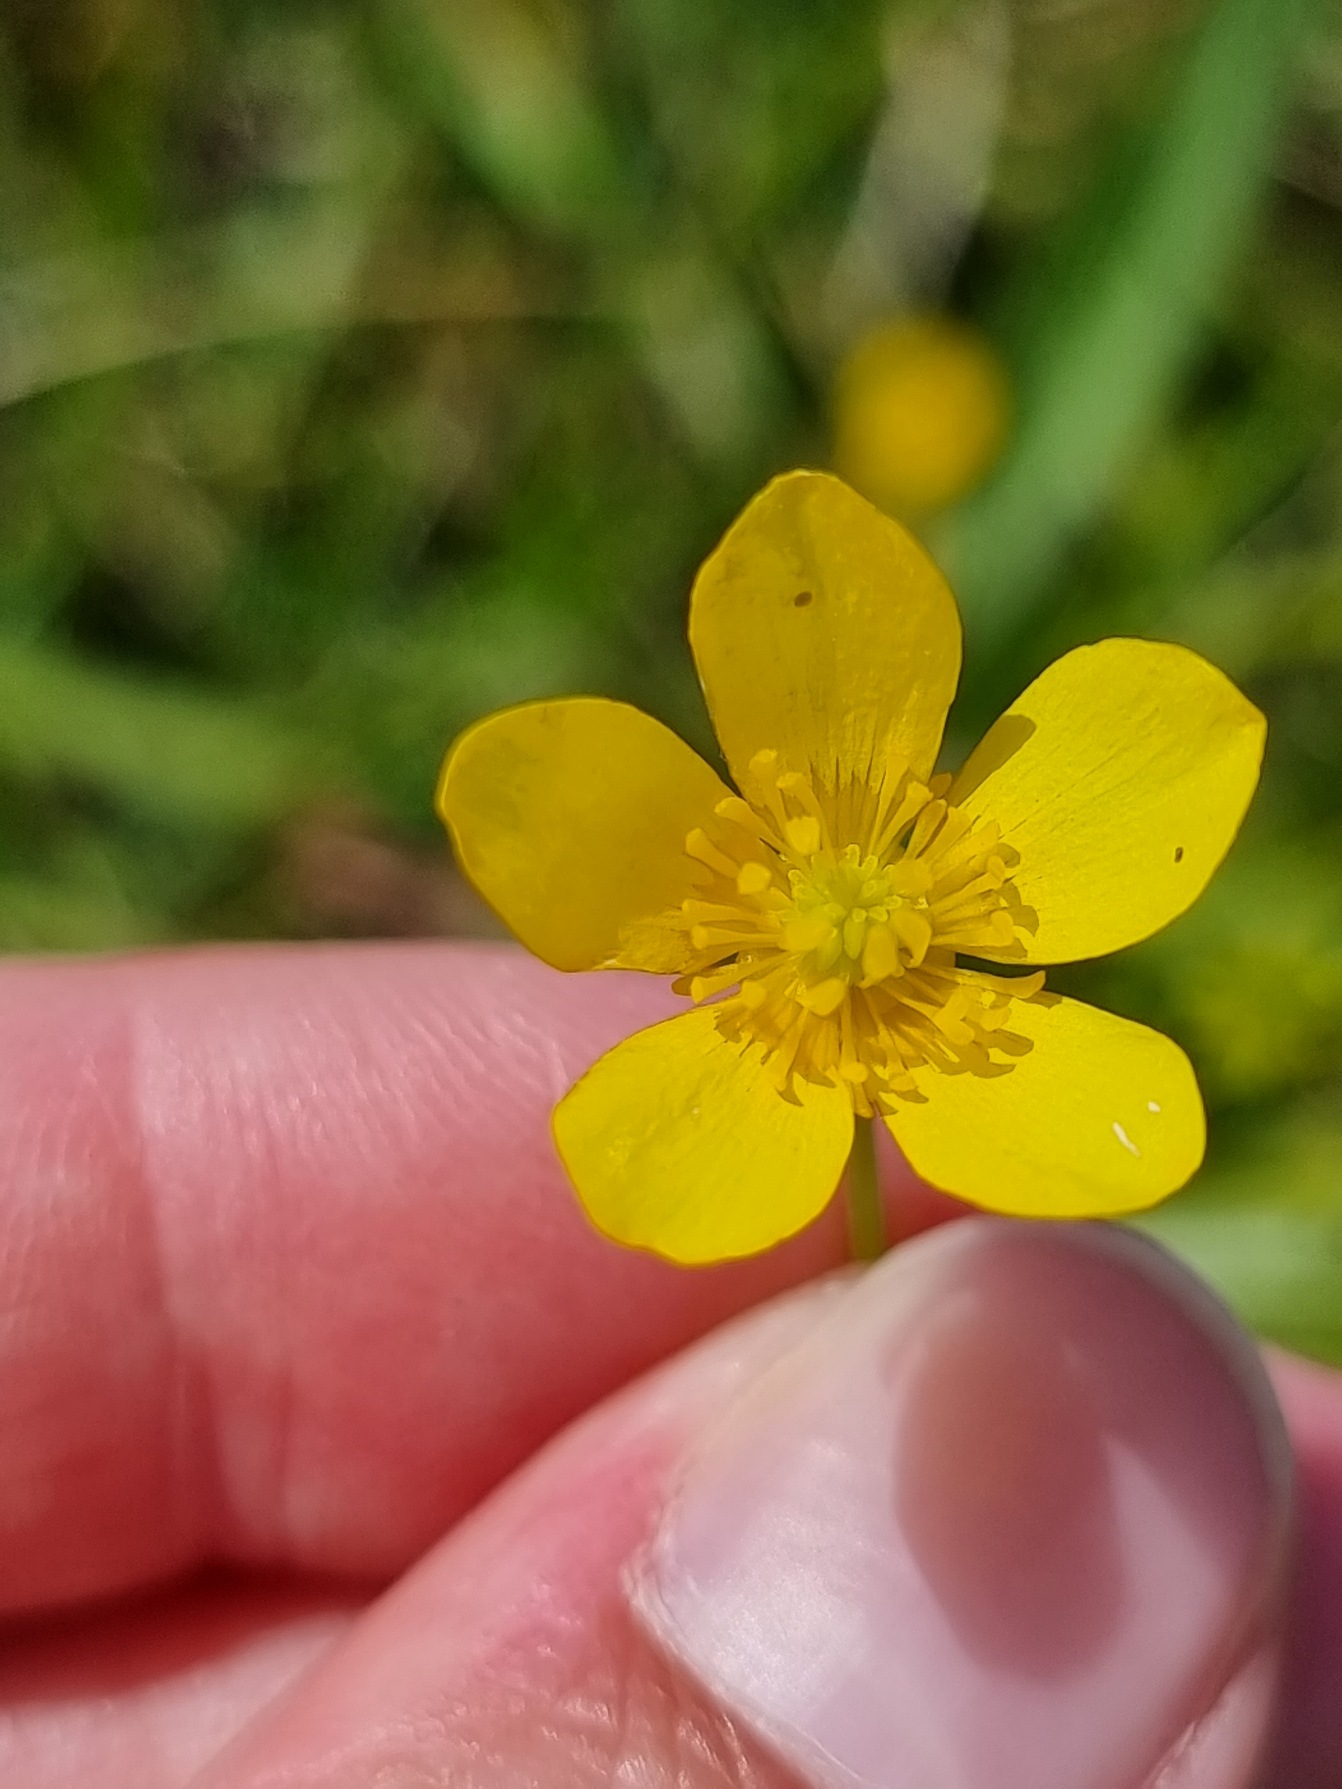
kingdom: Plantae
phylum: Tracheophyta
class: Magnoliopsida
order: Ranunculales
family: Ranunculaceae
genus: Ranunculus
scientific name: Ranunculus sardous
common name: Stivhåret ranunkel
